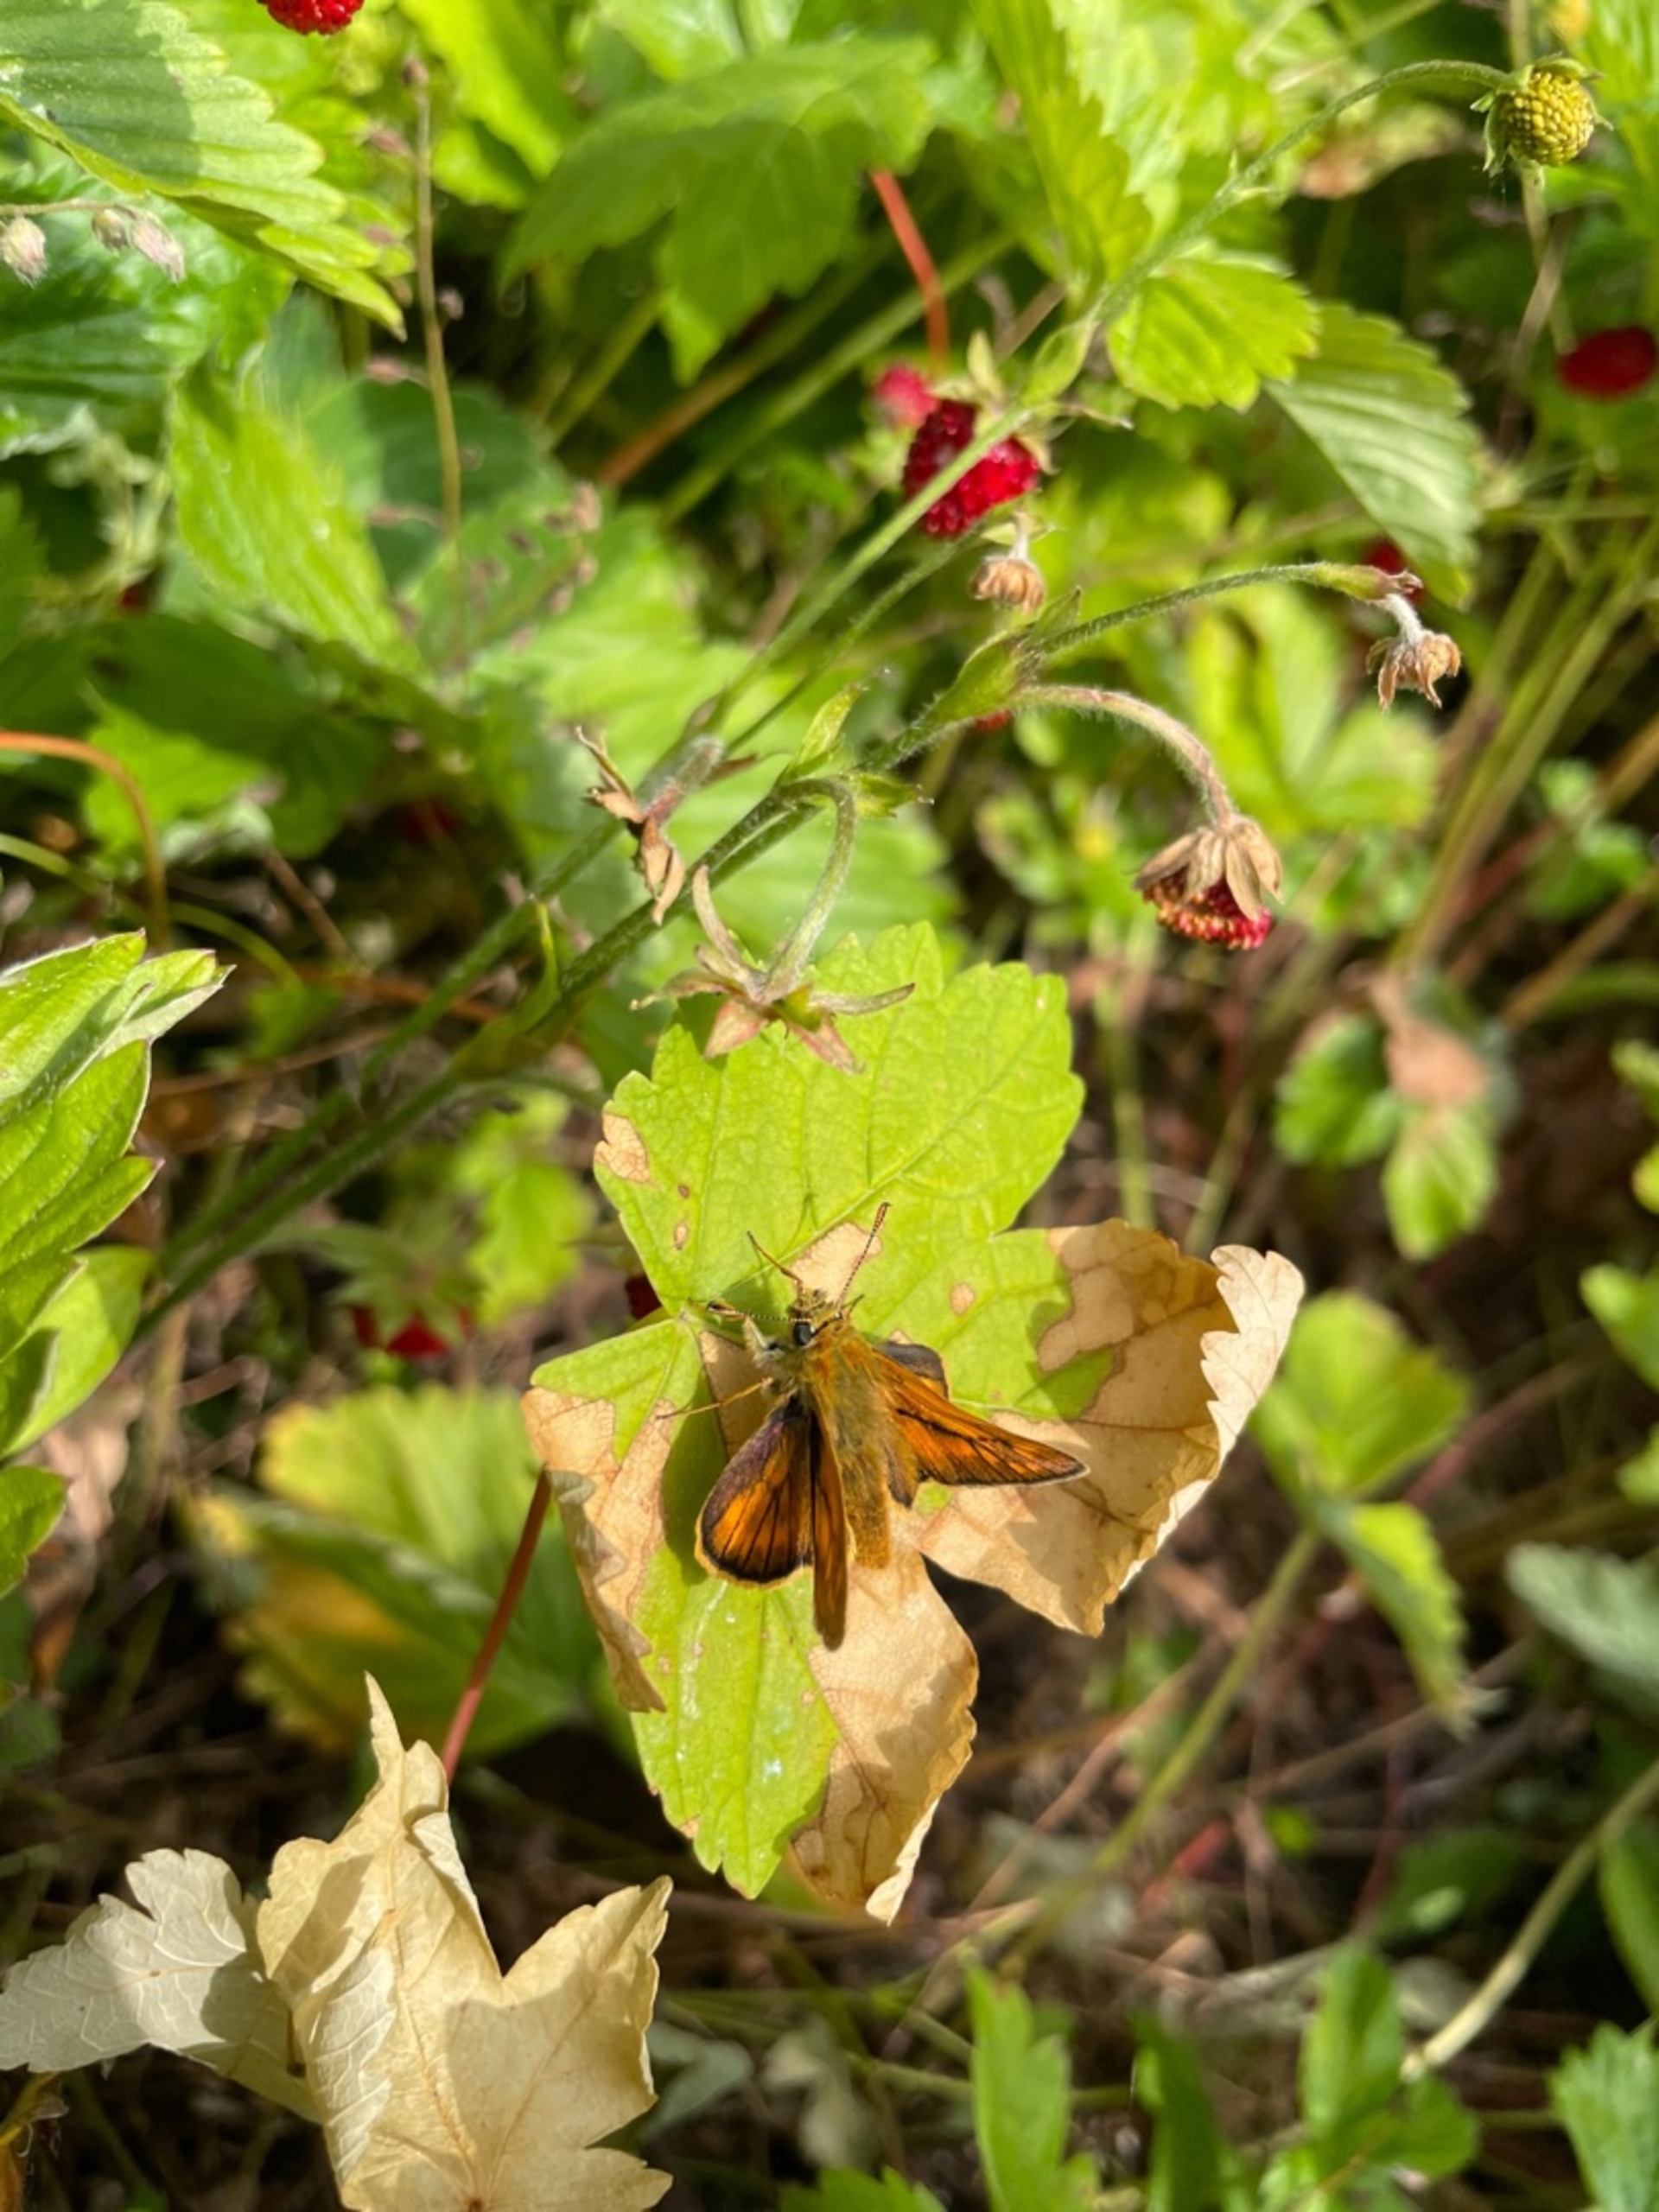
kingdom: Animalia
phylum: Arthropoda
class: Insecta
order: Lepidoptera
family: Hesperiidae
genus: Ochlodes
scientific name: Ochlodes venata
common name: Stor bredpande
